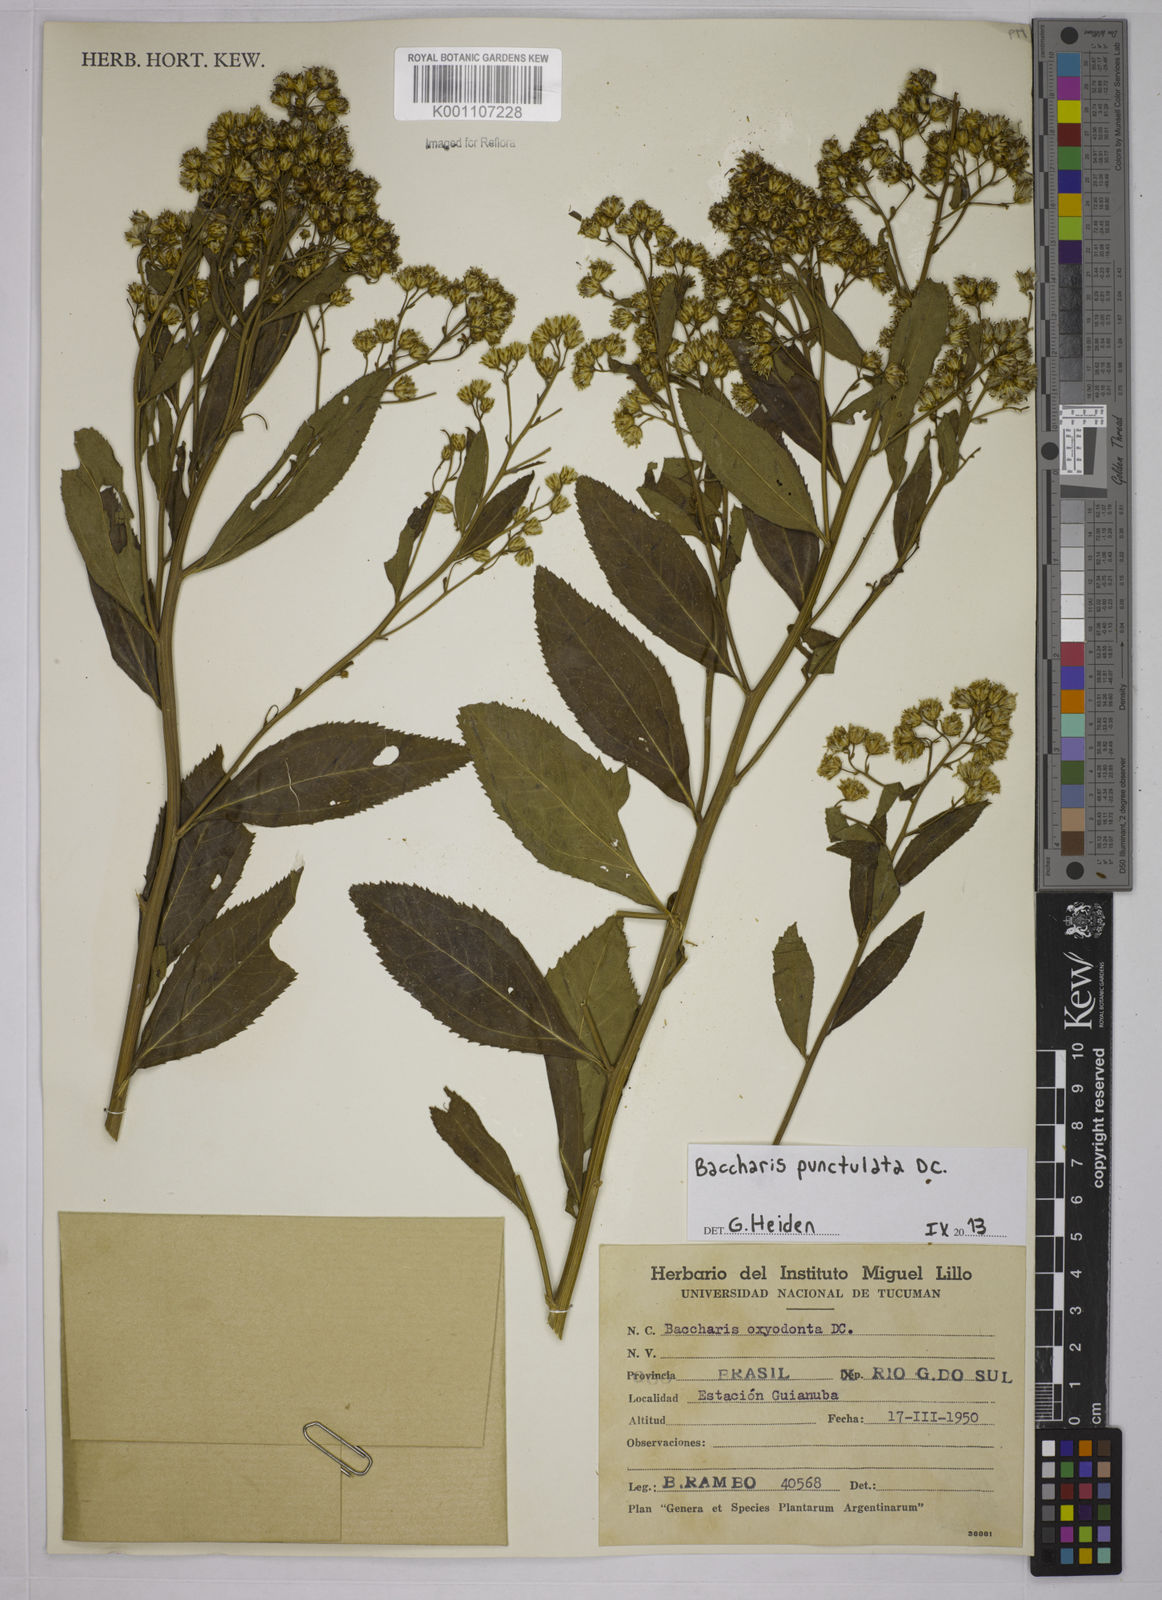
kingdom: Plantae
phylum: Tracheophyta
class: Magnoliopsida
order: Asterales
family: Asteraceae
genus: Baccharis
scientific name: Baccharis punctulata
